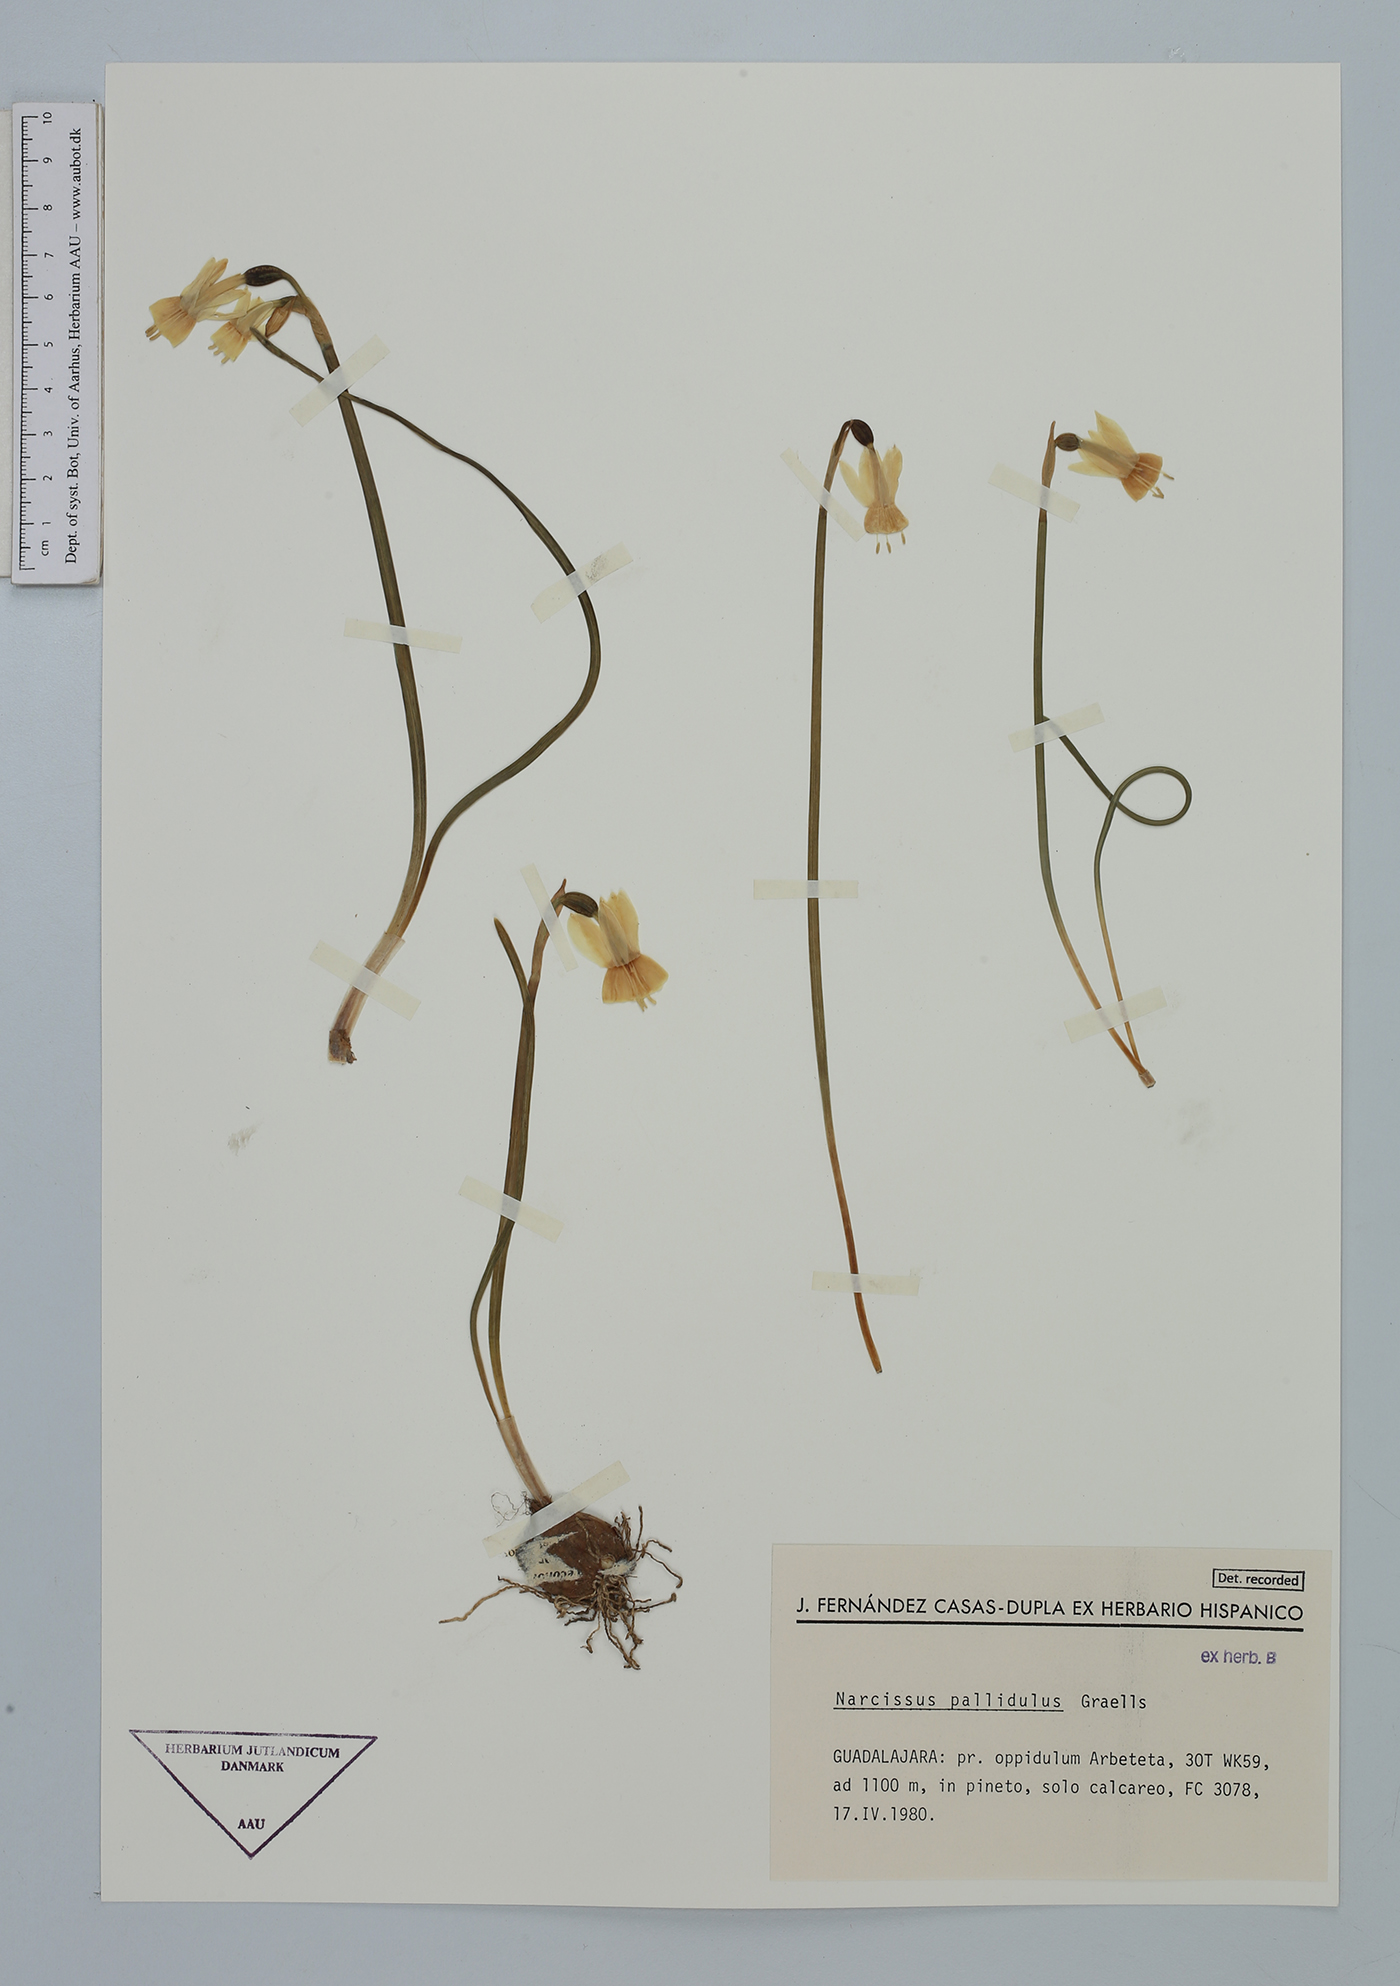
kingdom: Plantae
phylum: Tracheophyta
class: Liliopsida
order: Asparagales
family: Amaryllidaceae
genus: Narcissus
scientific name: Narcissus triandrus
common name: Angel's-tears
